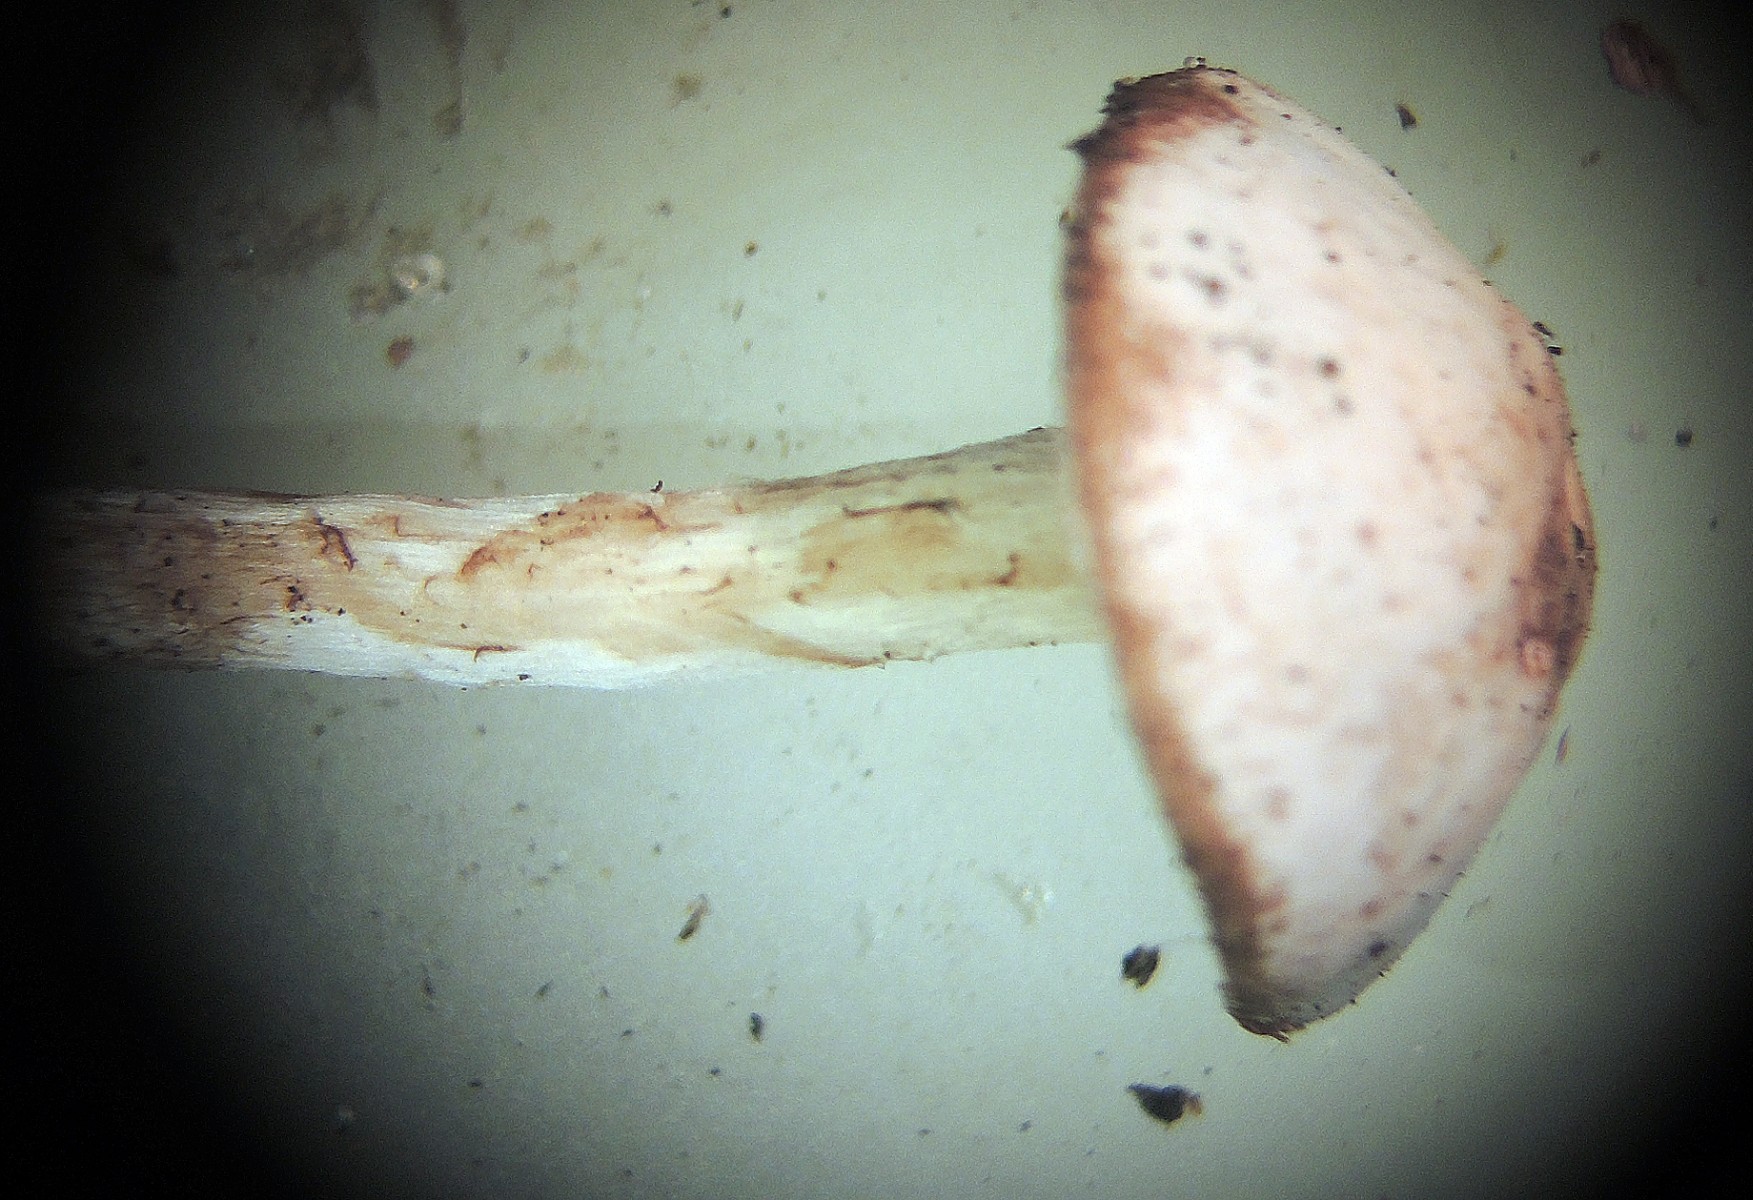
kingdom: Fungi
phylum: Basidiomycota
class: Agaricomycetes
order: Agaricales
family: Agaricaceae
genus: Lepiota
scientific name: Lepiota coloratipes
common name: nøgen parasolhat
